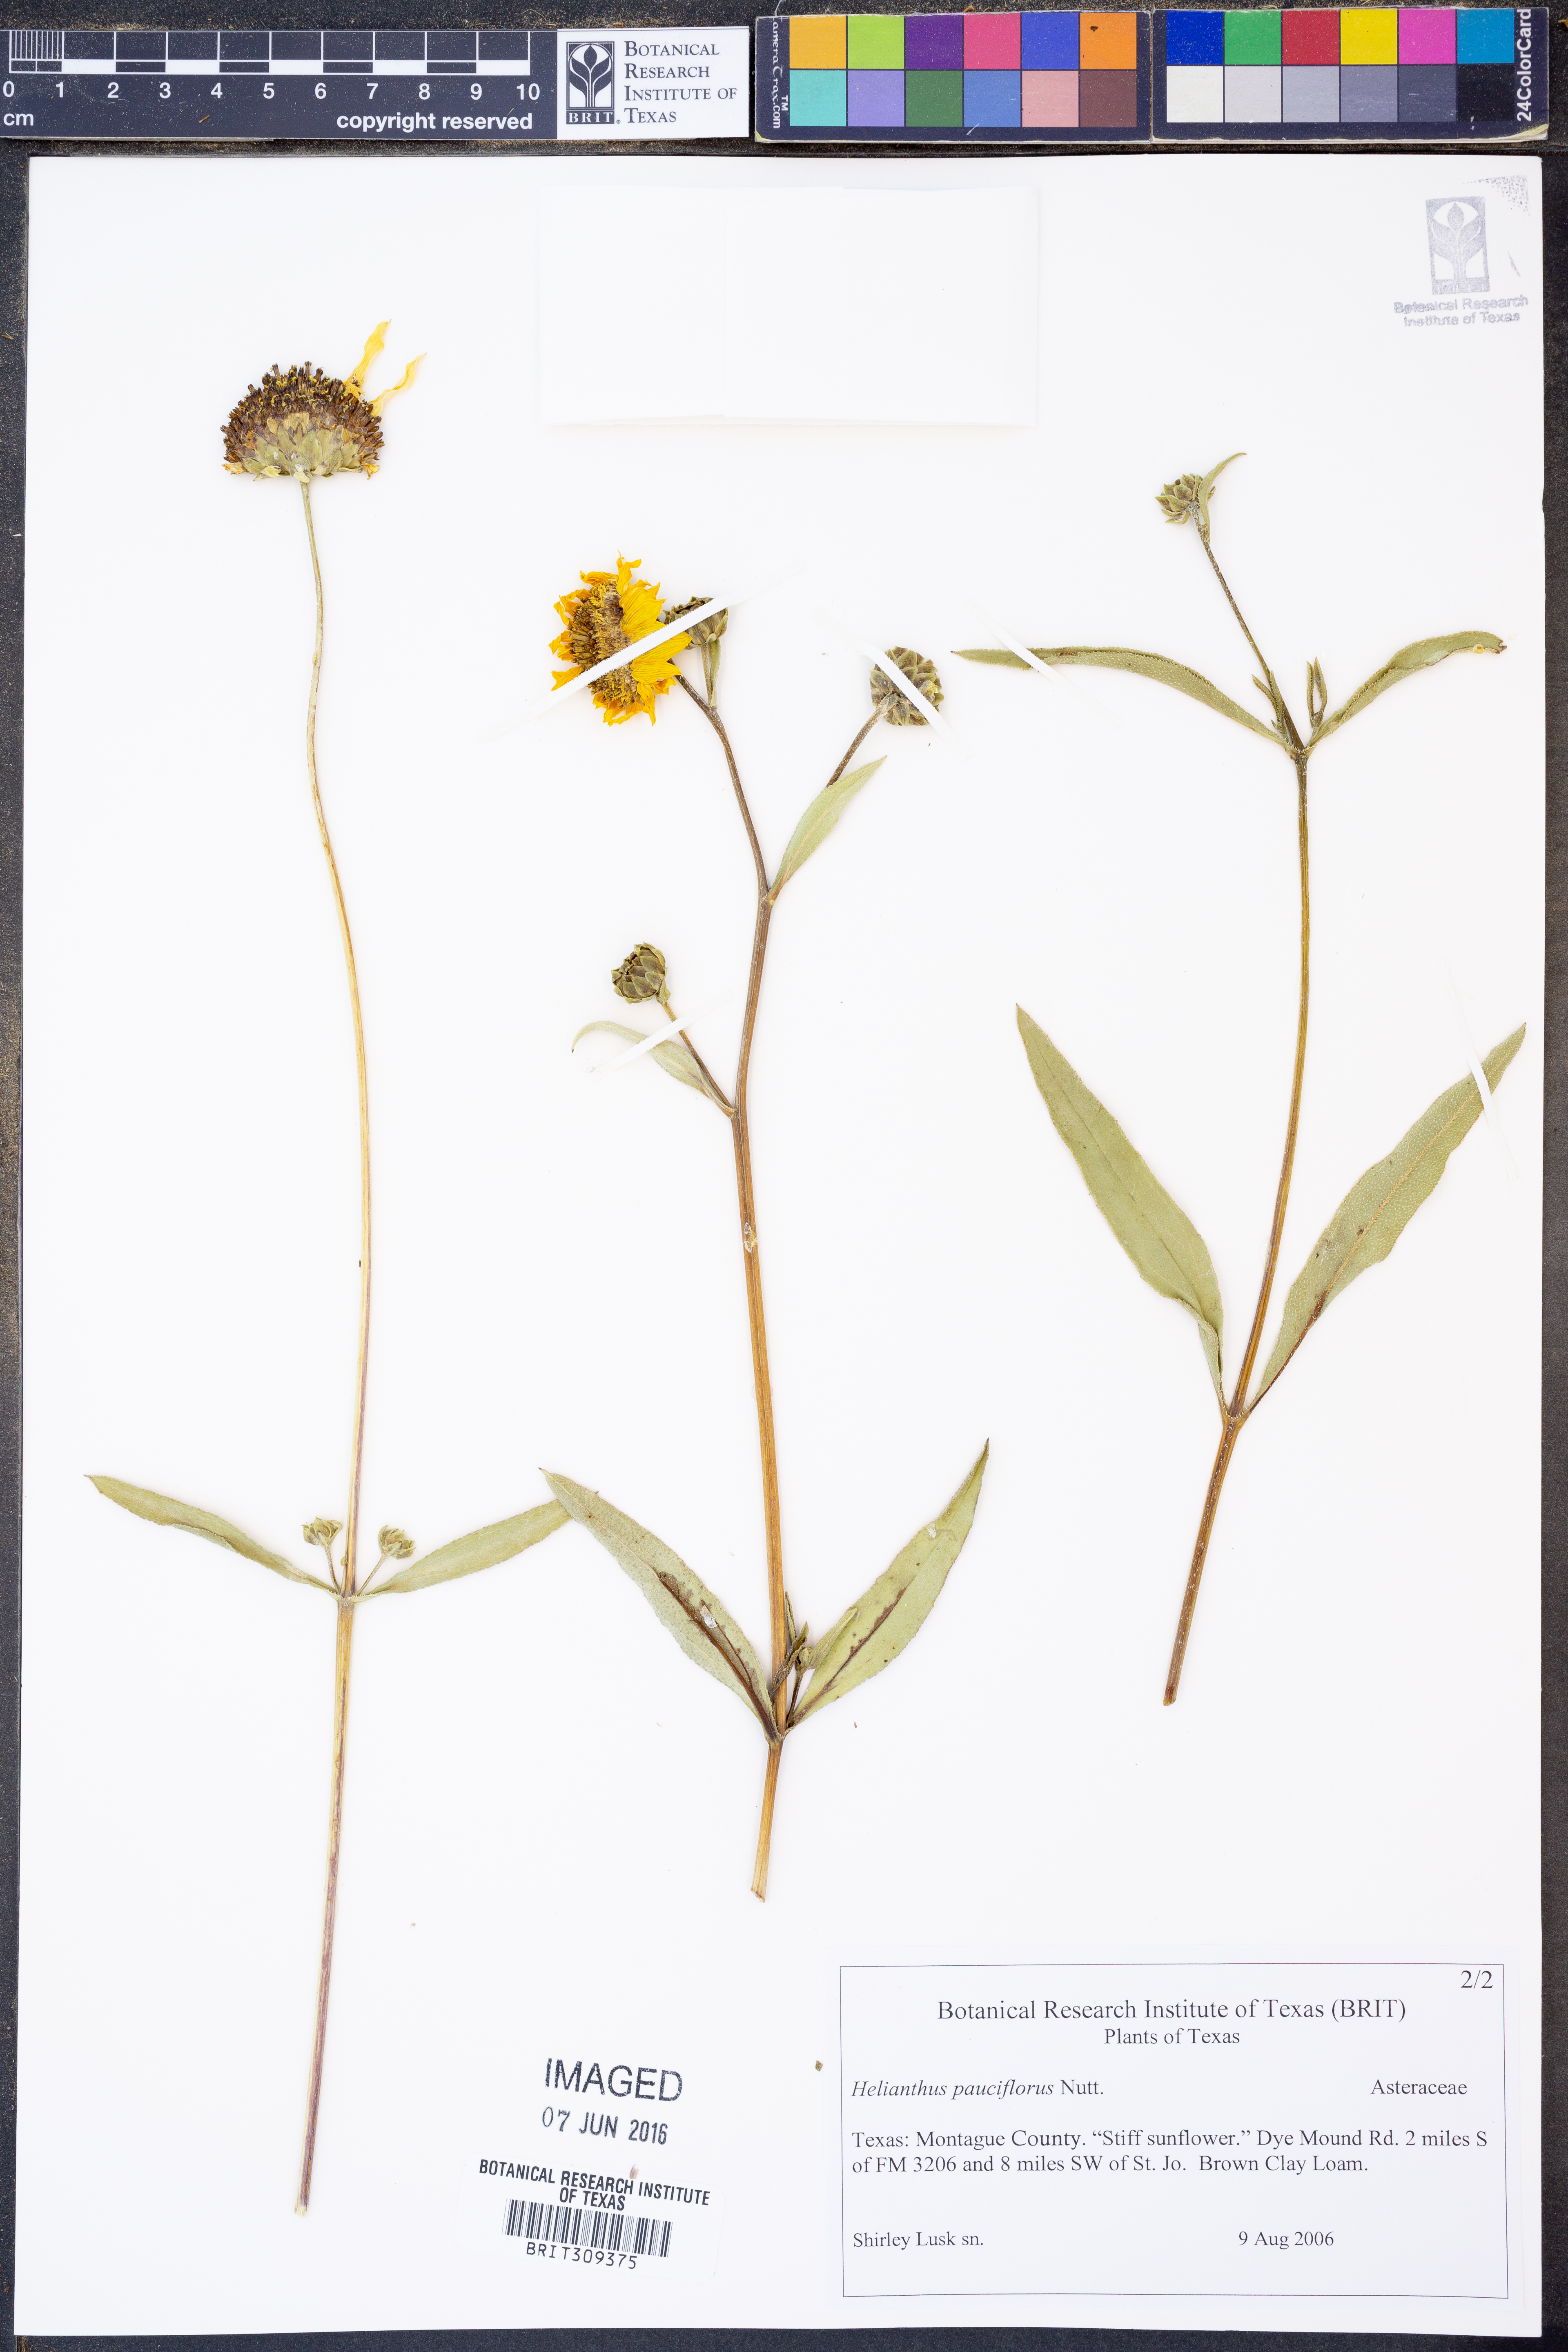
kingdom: Plantae
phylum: Tracheophyta
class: Magnoliopsida
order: Asterales
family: Asteraceae
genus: Helianthus
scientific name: Helianthus pauciflorus
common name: Stiff sunflower
